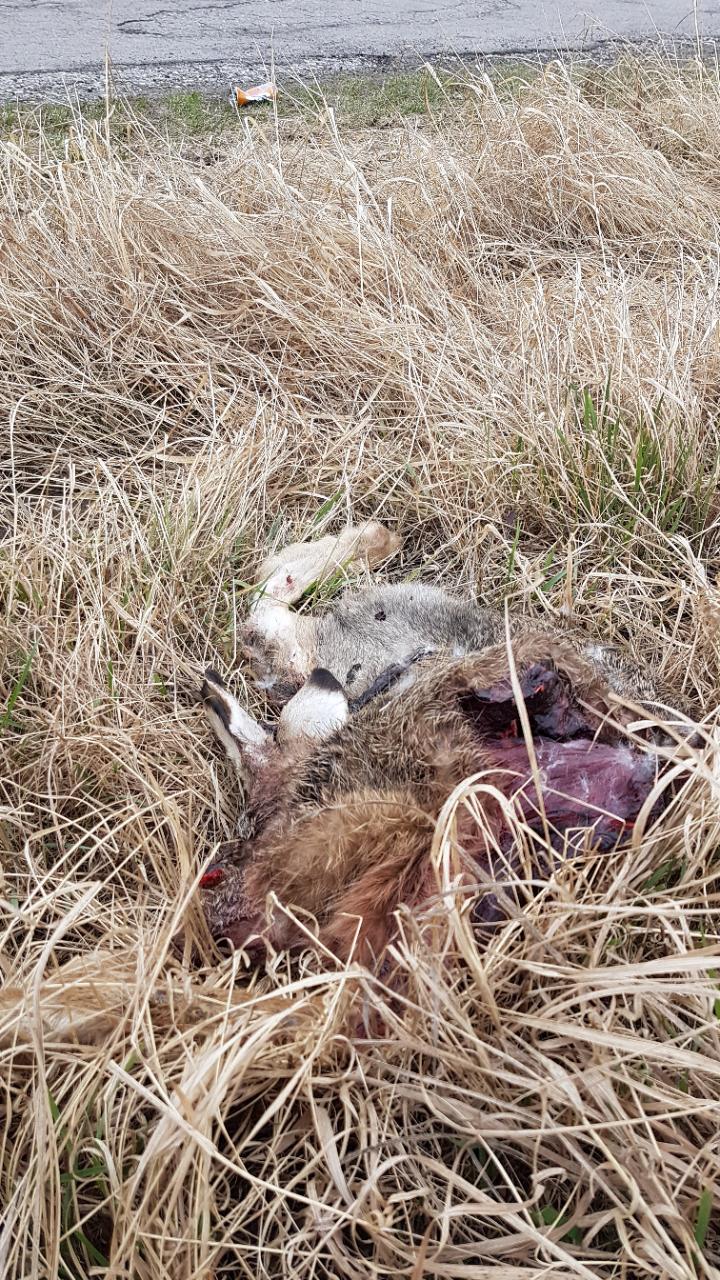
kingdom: Animalia
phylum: Chordata
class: Mammalia
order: Lagomorpha
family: Leporidae
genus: Lepus
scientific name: Lepus europaeus
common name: European hare
